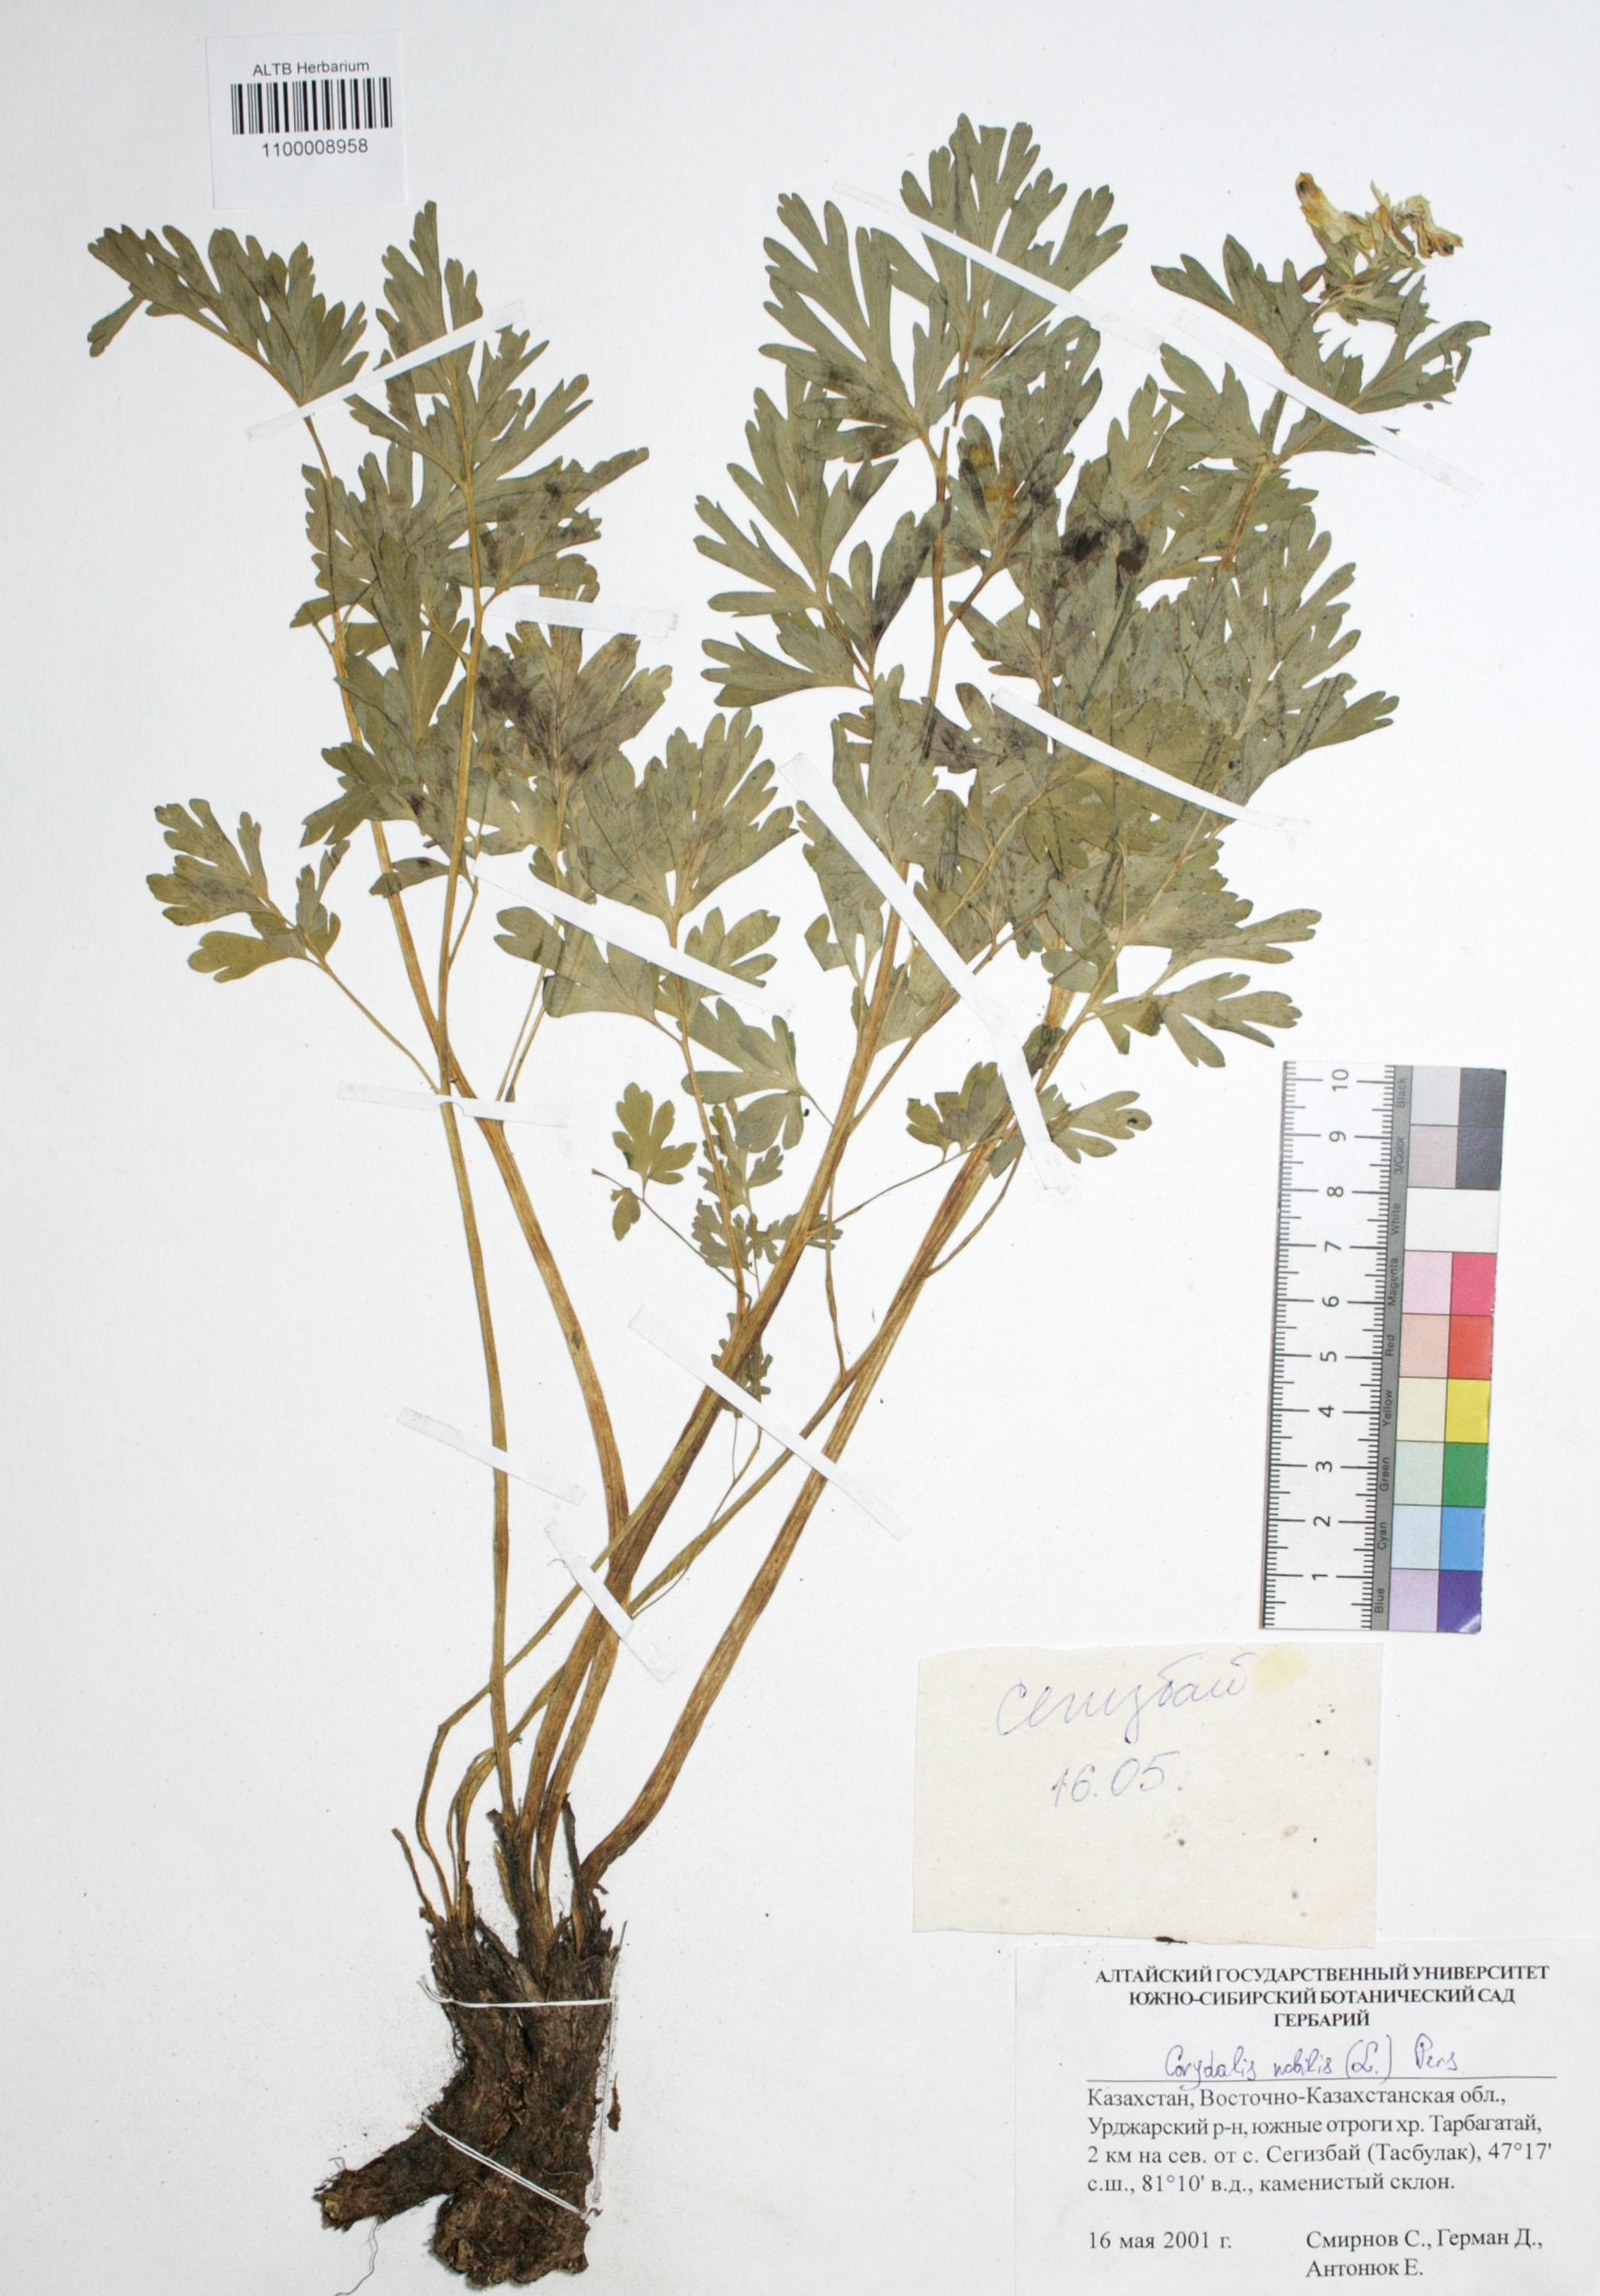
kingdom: Plantae
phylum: Tracheophyta
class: Magnoliopsida
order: Ranunculales
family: Papaveraceae
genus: Corydalis
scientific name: Corydalis nobilis
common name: Siberian corydalis
